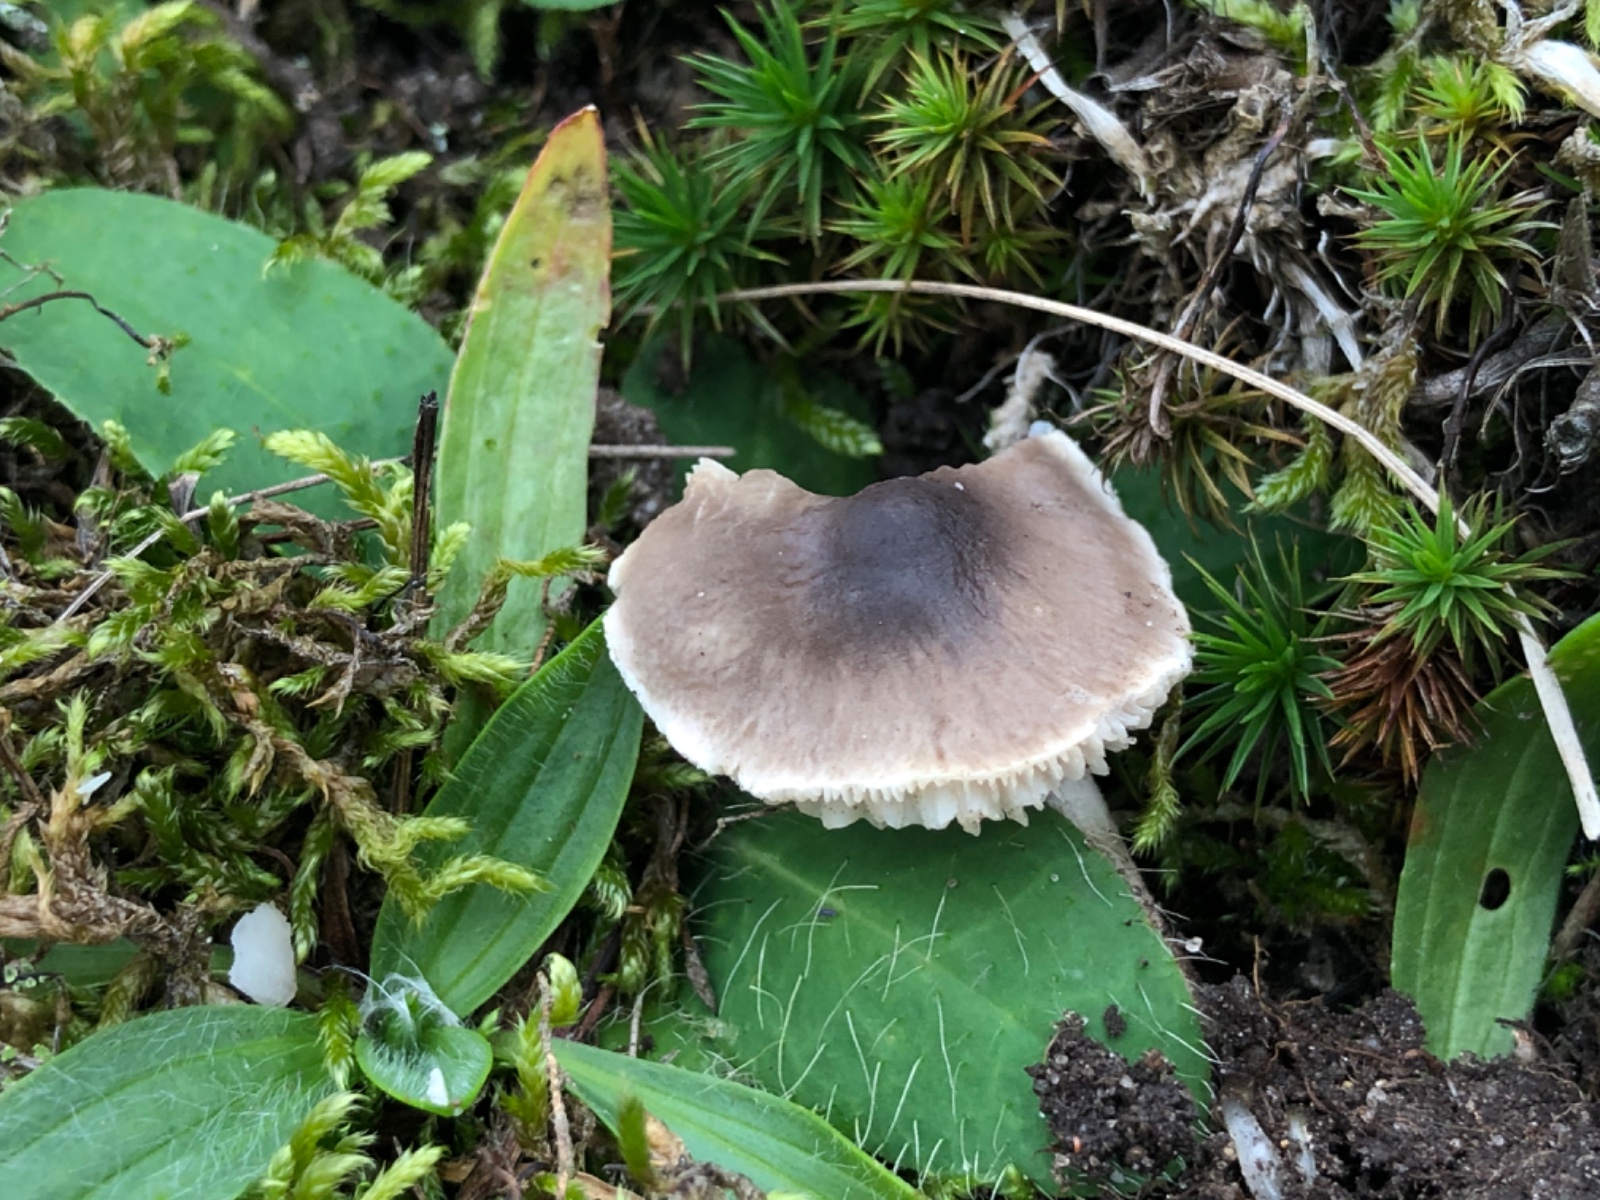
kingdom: Fungi
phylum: Basidiomycota
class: Agaricomycetes
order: Agaricales
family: Tricholomataceae
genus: Dermoloma
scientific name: Dermoloma cuneifolium
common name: eng-nonnehat
